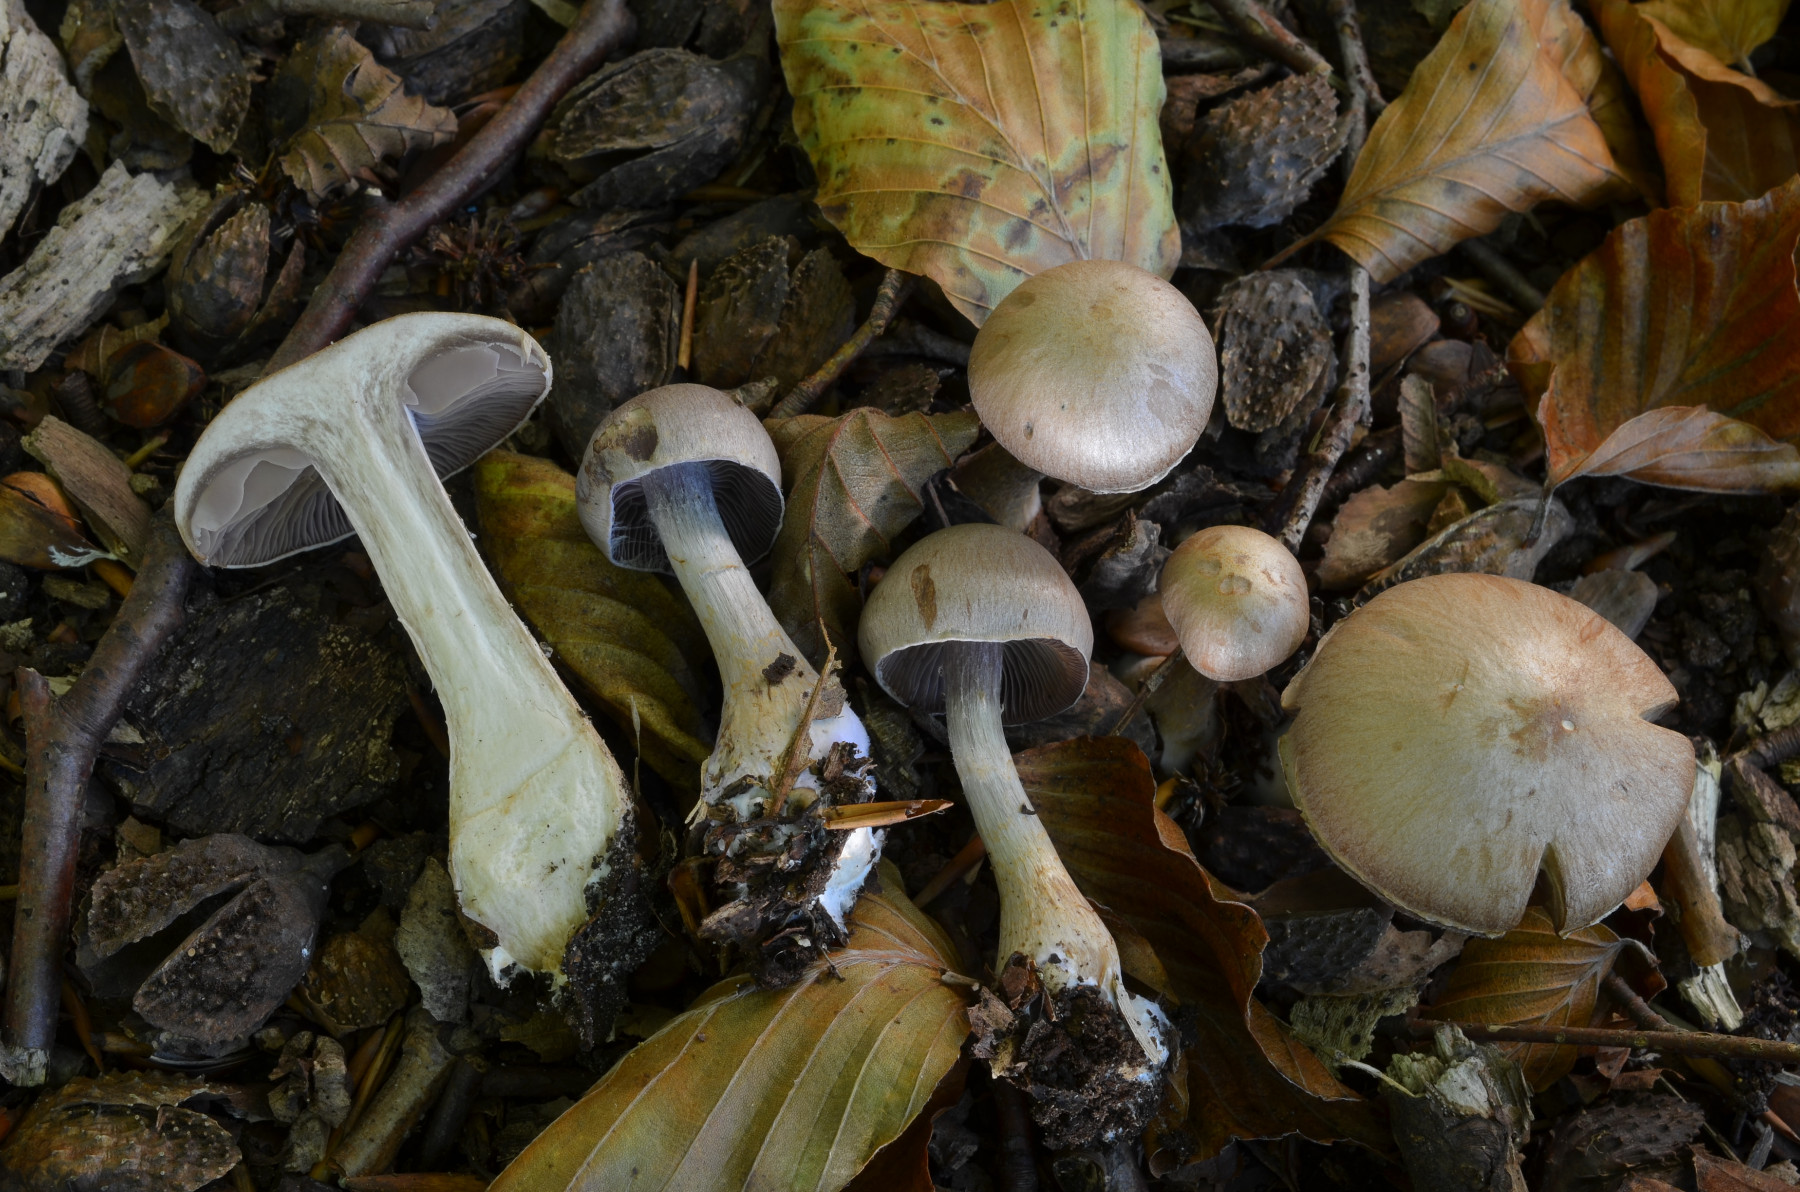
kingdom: Fungi
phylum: Basidiomycota
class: Agaricomycetes
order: Agaricales
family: Cortinariaceae
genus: Cortinarius
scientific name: Cortinarius pelerinii
